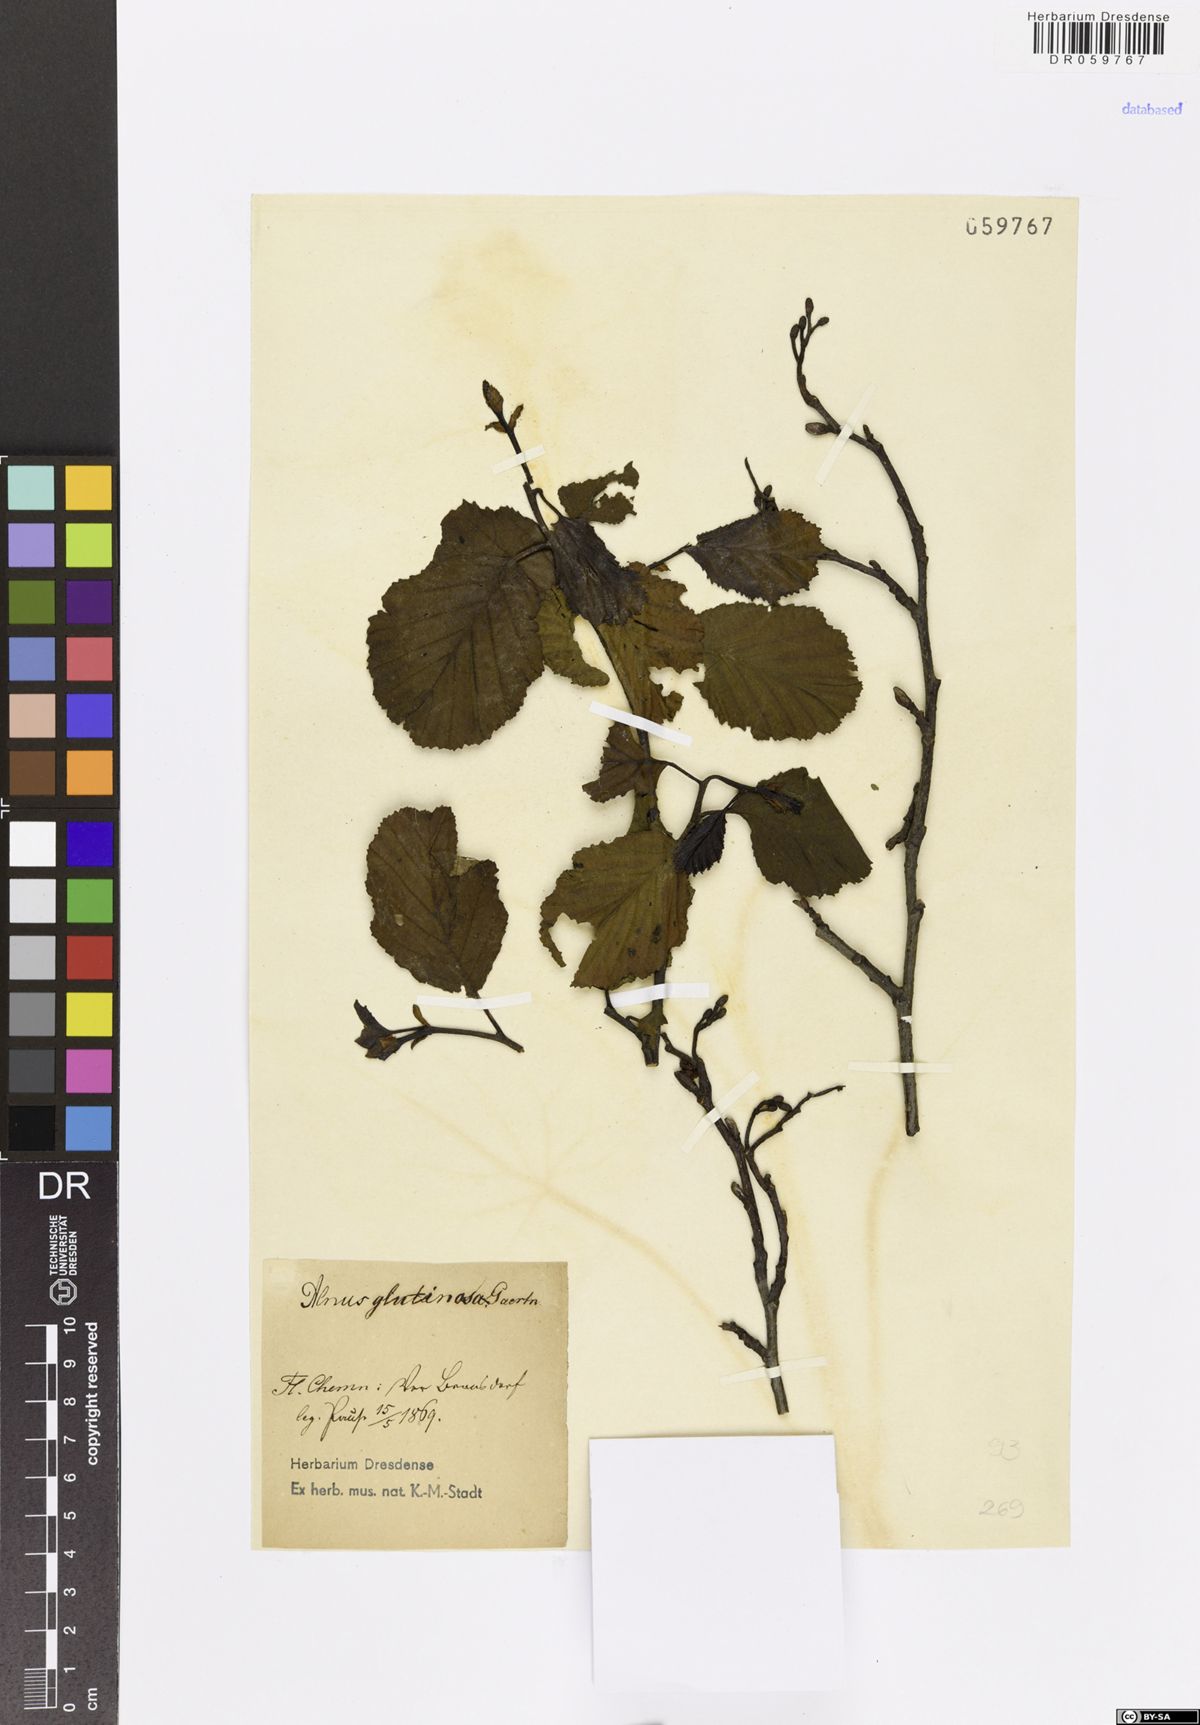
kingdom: Plantae
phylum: Tracheophyta
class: Magnoliopsida
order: Fagales
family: Betulaceae
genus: Alnus
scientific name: Alnus glutinosa
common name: Black alder
